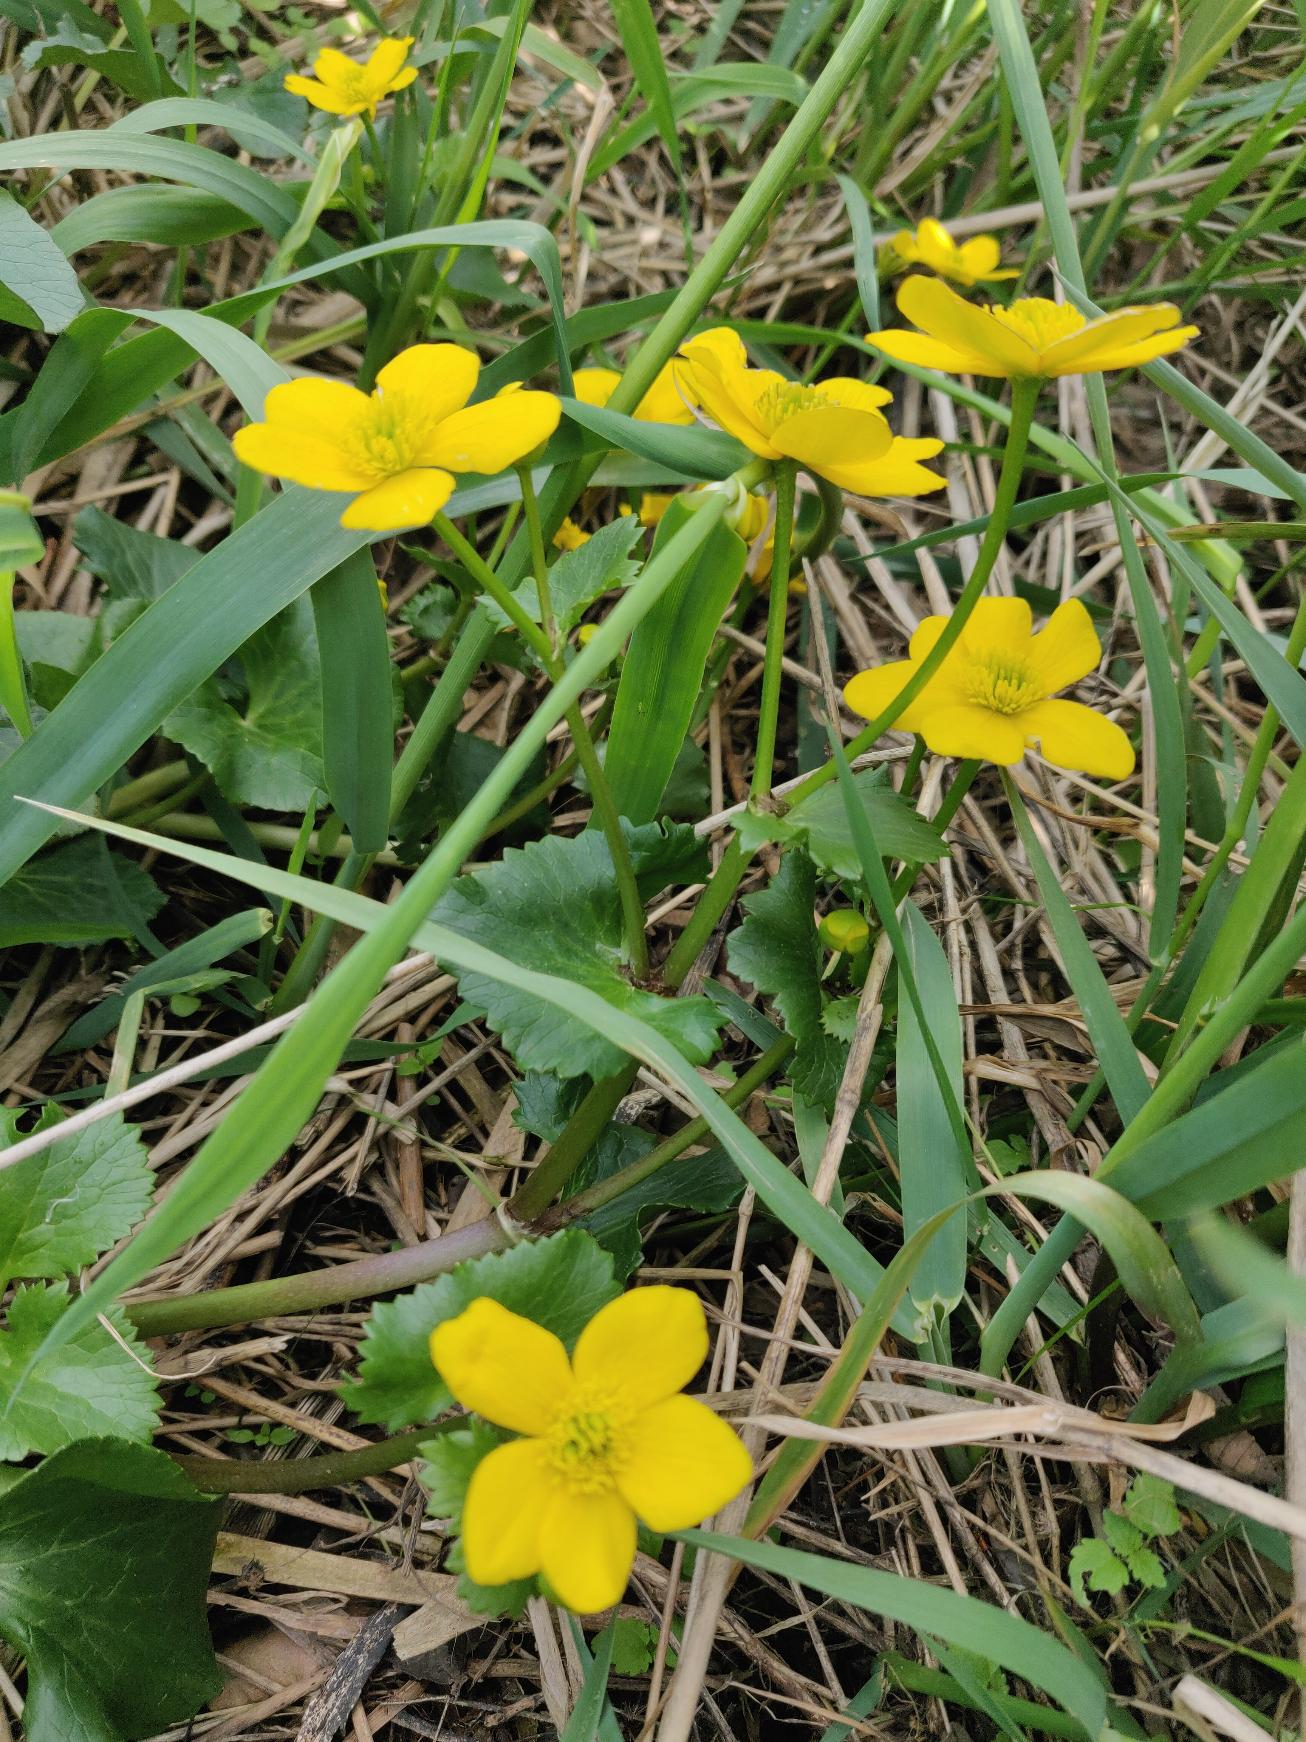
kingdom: Plantae
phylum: Tracheophyta
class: Magnoliopsida
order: Ranunculales
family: Ranunculaceae
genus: Caltha
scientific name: Caltha palustris
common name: Eng-kabbeleje
